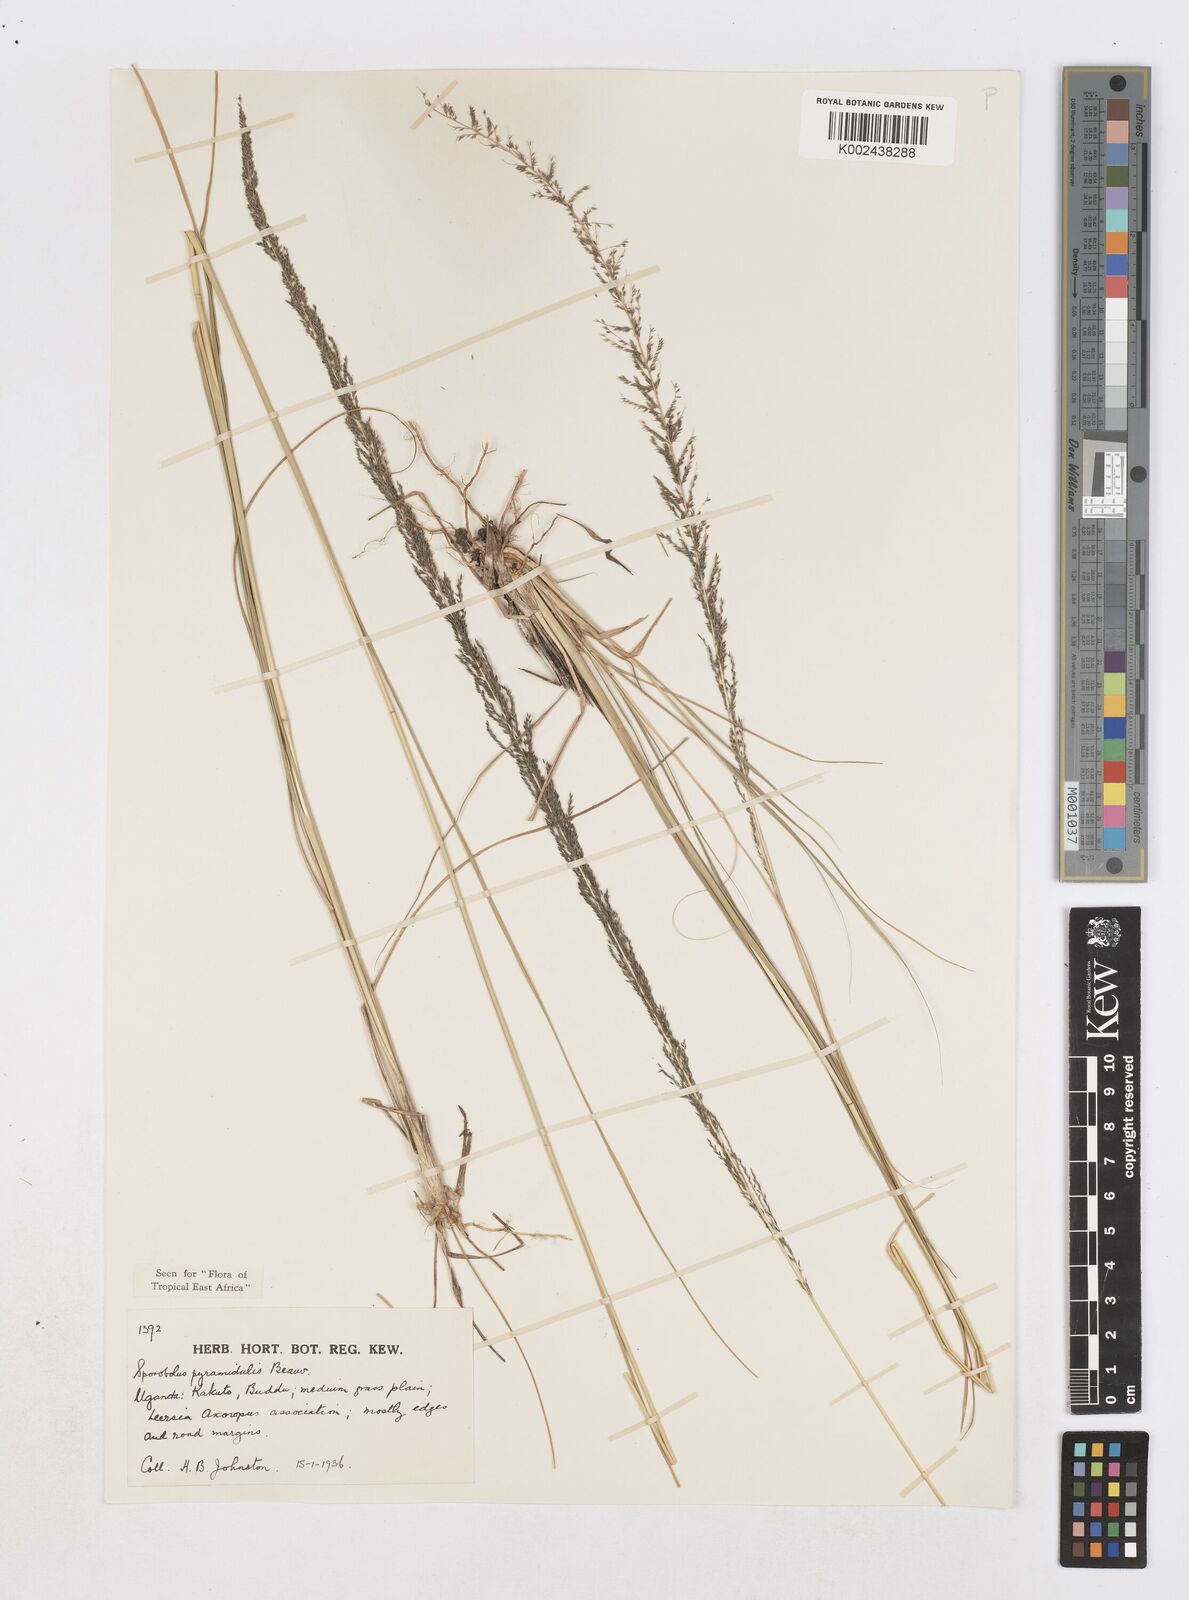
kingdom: Plantae
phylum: Tracheophyta
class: Liliopsida
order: Poales
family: Poaceae
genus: Sporobolus
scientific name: Sporobolus pyramidalis
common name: West indian dropseed
